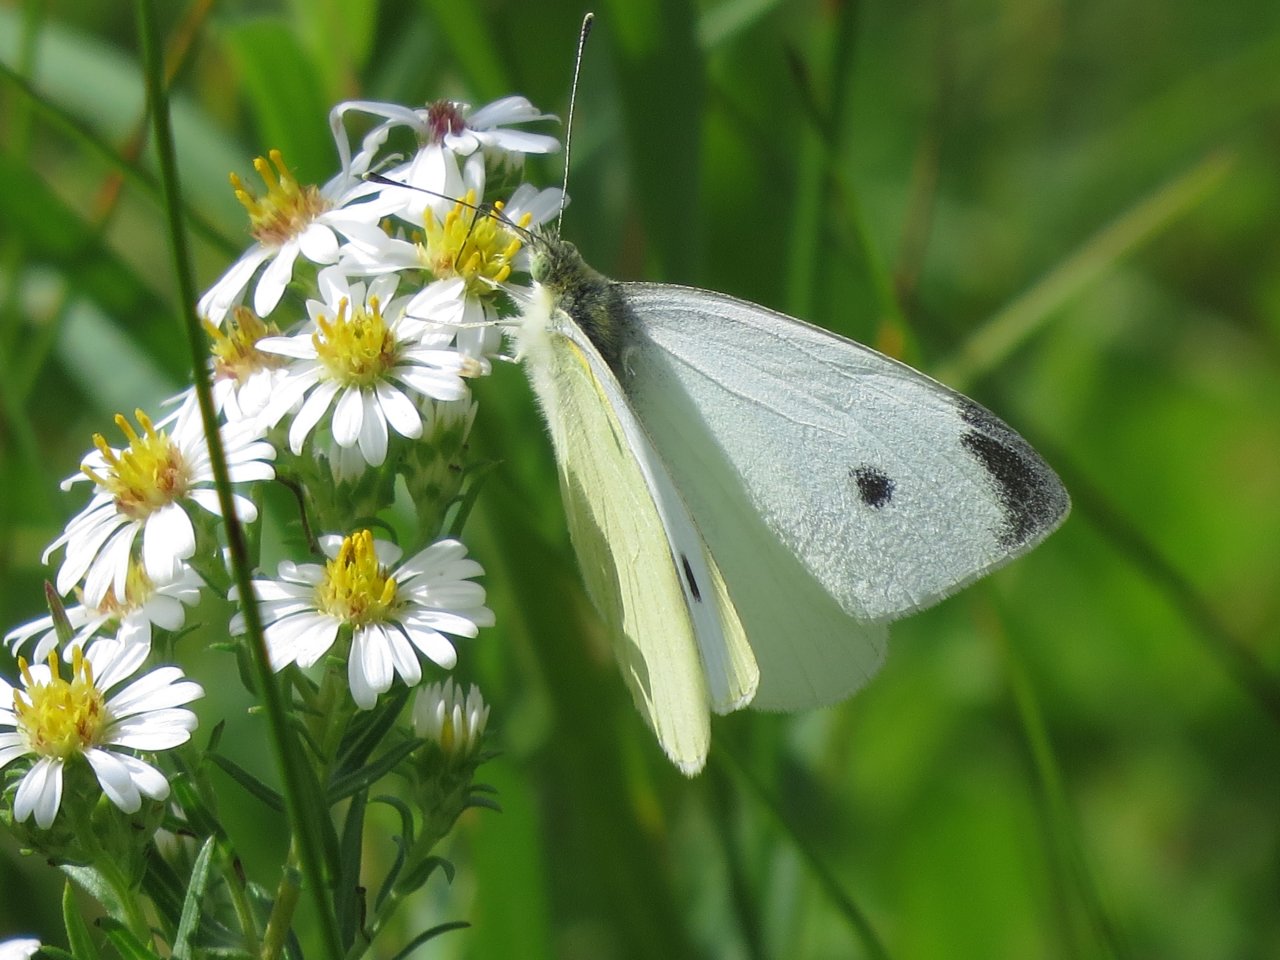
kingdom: Animalia
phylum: Arthropoda
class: Insecta
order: Lepidoptera
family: Pieridae
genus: Pieris
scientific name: Pieris rapae
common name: Cabbage White
